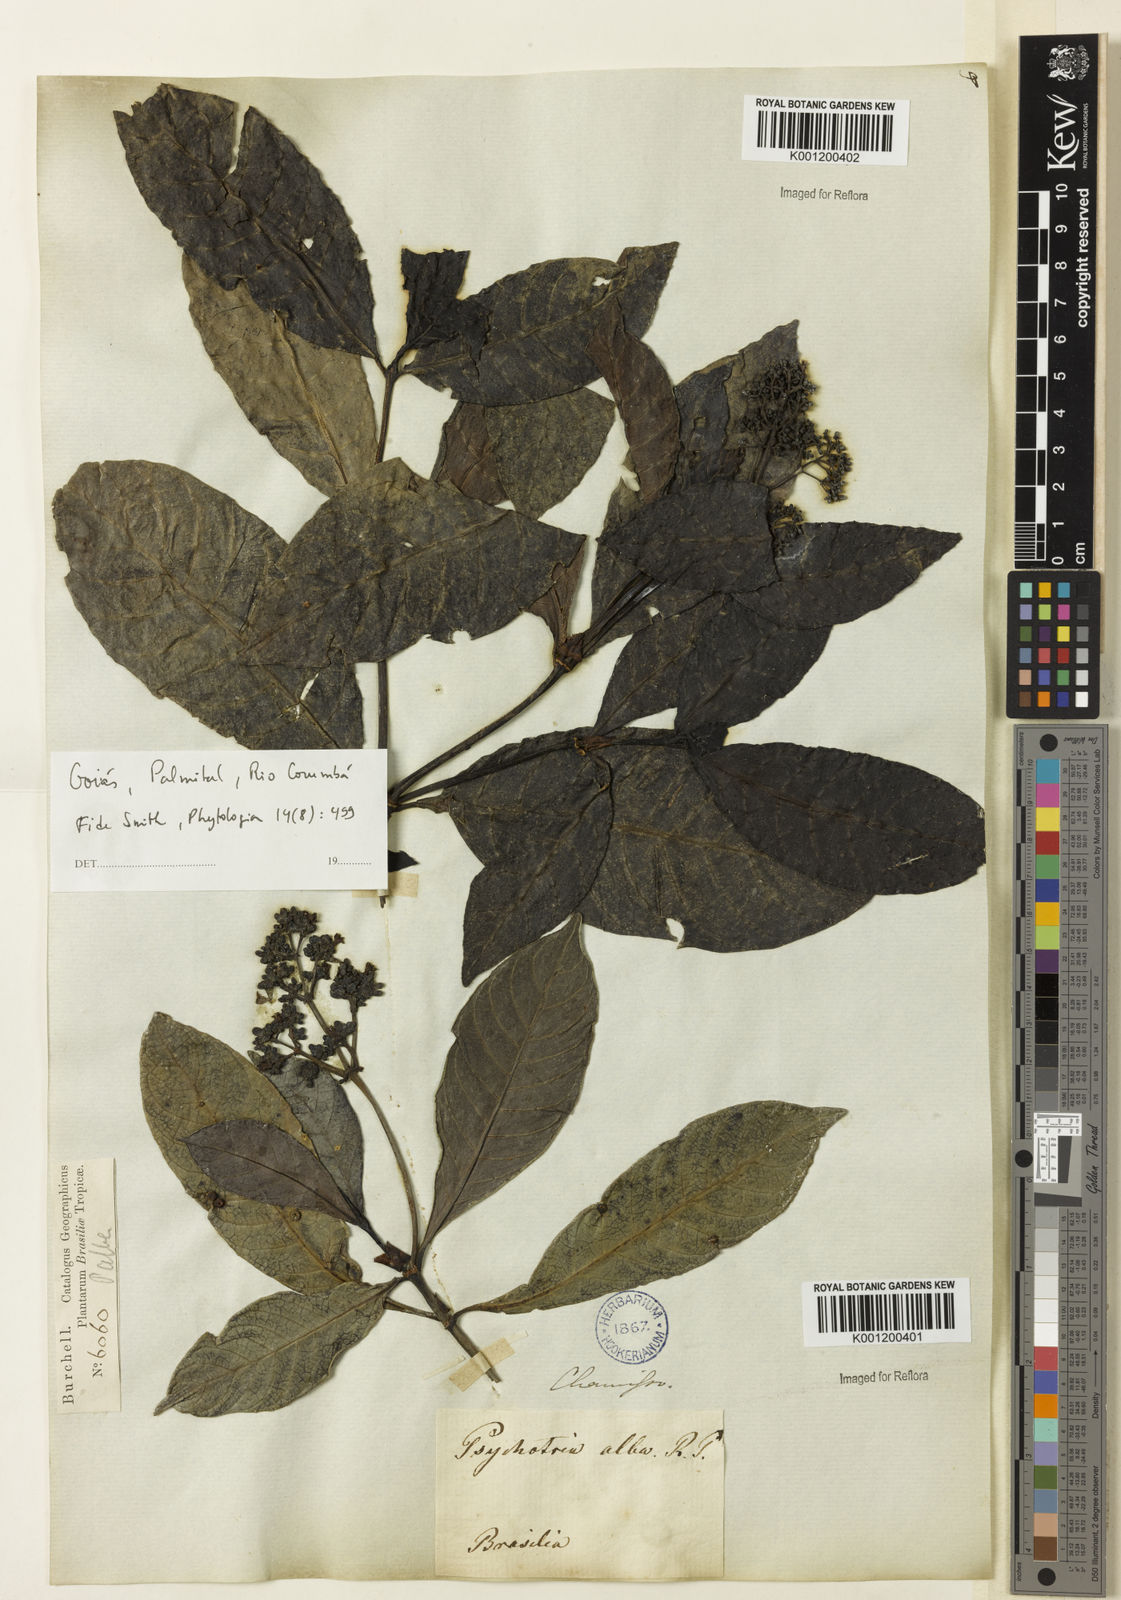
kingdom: Plantae
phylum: Tracheophyta
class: Magnoliopsida
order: Gentianales
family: Rubiaceae
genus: Psychotria
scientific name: Psychotria carthagenensis
